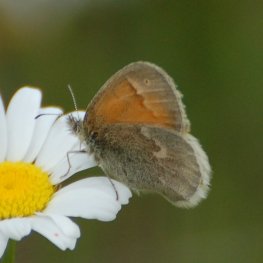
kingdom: Animalia
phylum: Arthropoda
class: Insecta
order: Lepidoptera
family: Nymphalidae
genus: Coenonympha
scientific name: Coenonympha tullia
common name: Large Heath
